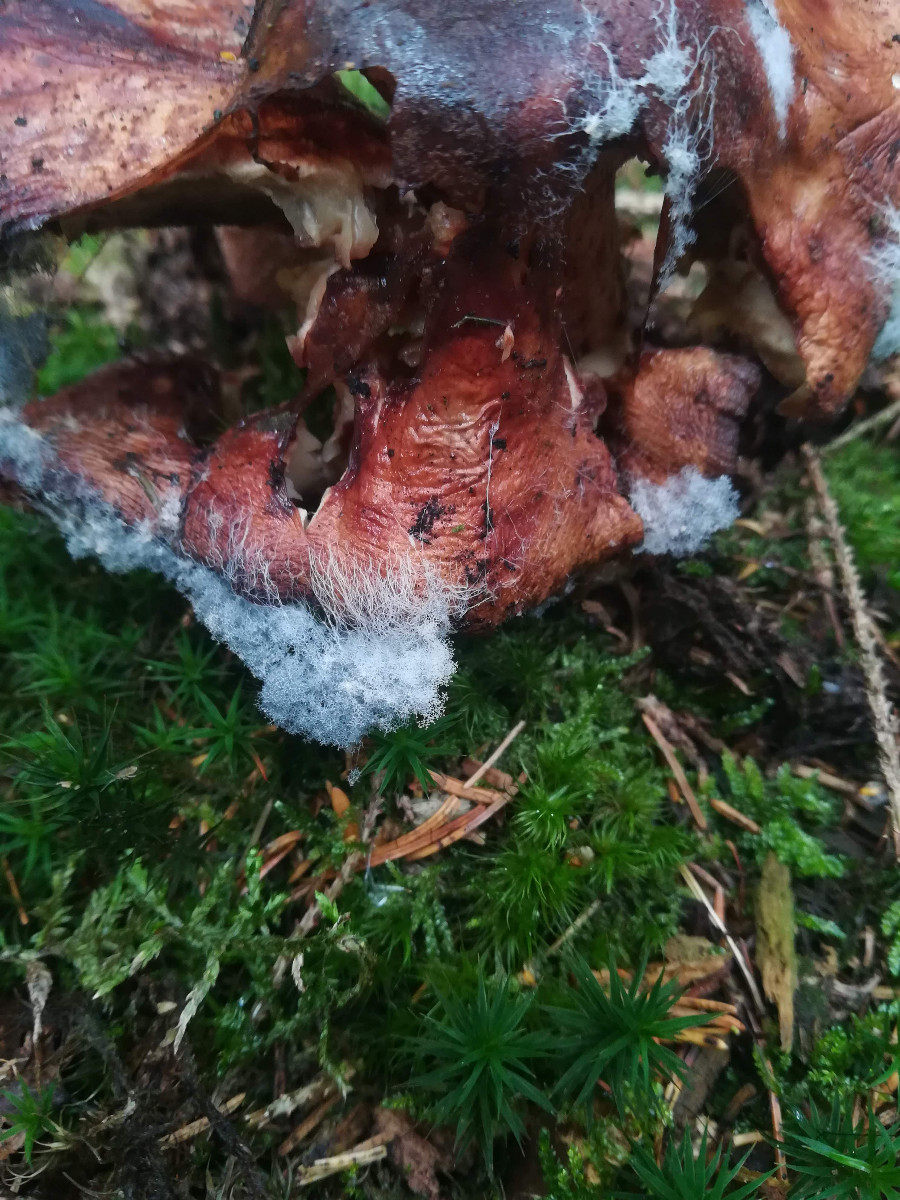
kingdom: Fungi
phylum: Mucoromycota
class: Mucoromycetes
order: Mucorales
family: Rhizopodaceae
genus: Syzygites
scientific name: Syzygites megalocarpus
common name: nissenål
